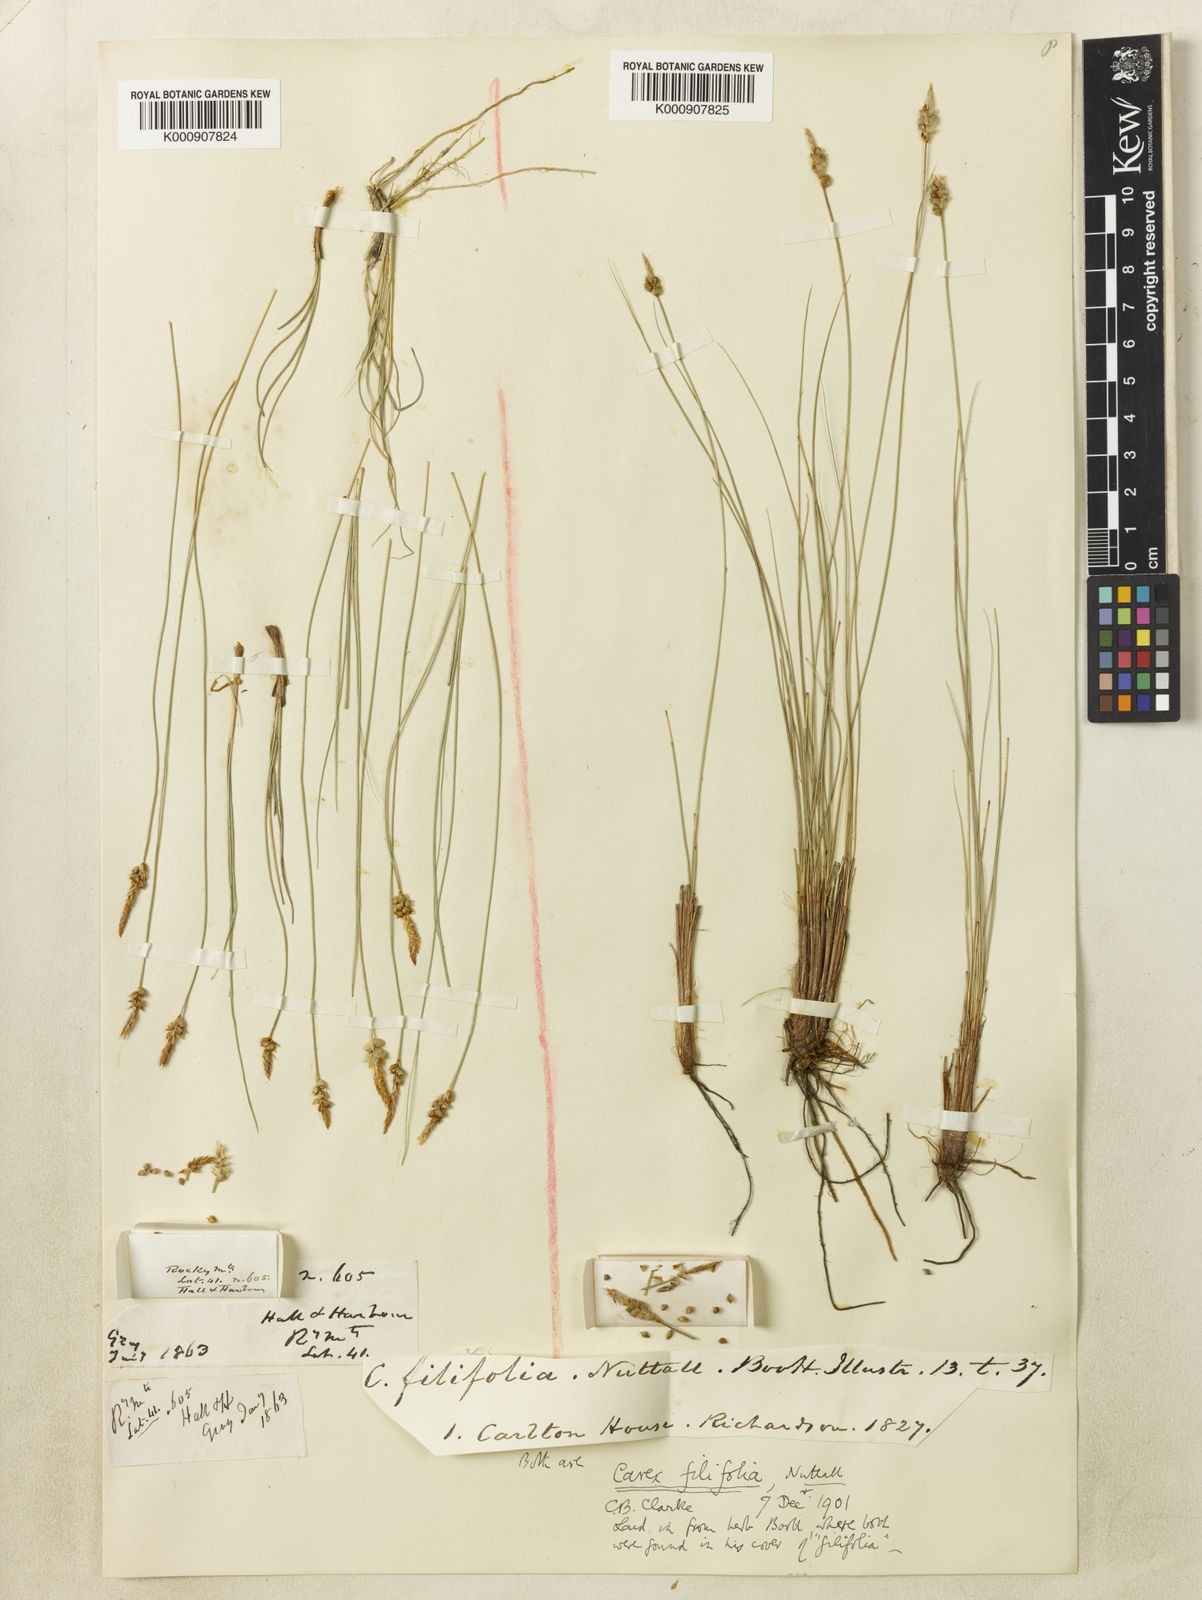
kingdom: Plantae
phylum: Tracheophyta
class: Liliopsida
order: Poales
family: Cyperaceae
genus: Carex
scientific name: Carex filifolia
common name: Threadleaf sedge
